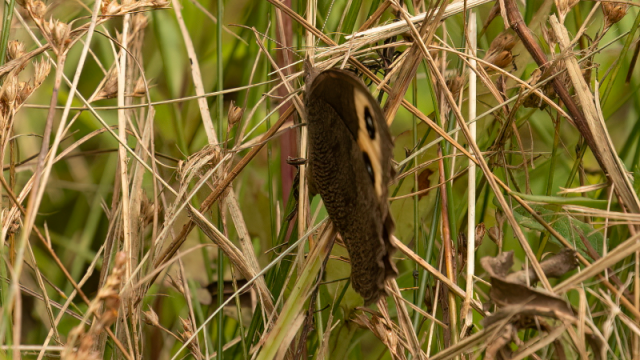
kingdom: Animalia
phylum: Arthropoda
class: Insecta
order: Lepidoptera
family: Nymphalidae
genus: Cercyonis
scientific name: Cercyonis pegala
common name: Common Wood-Nymph
